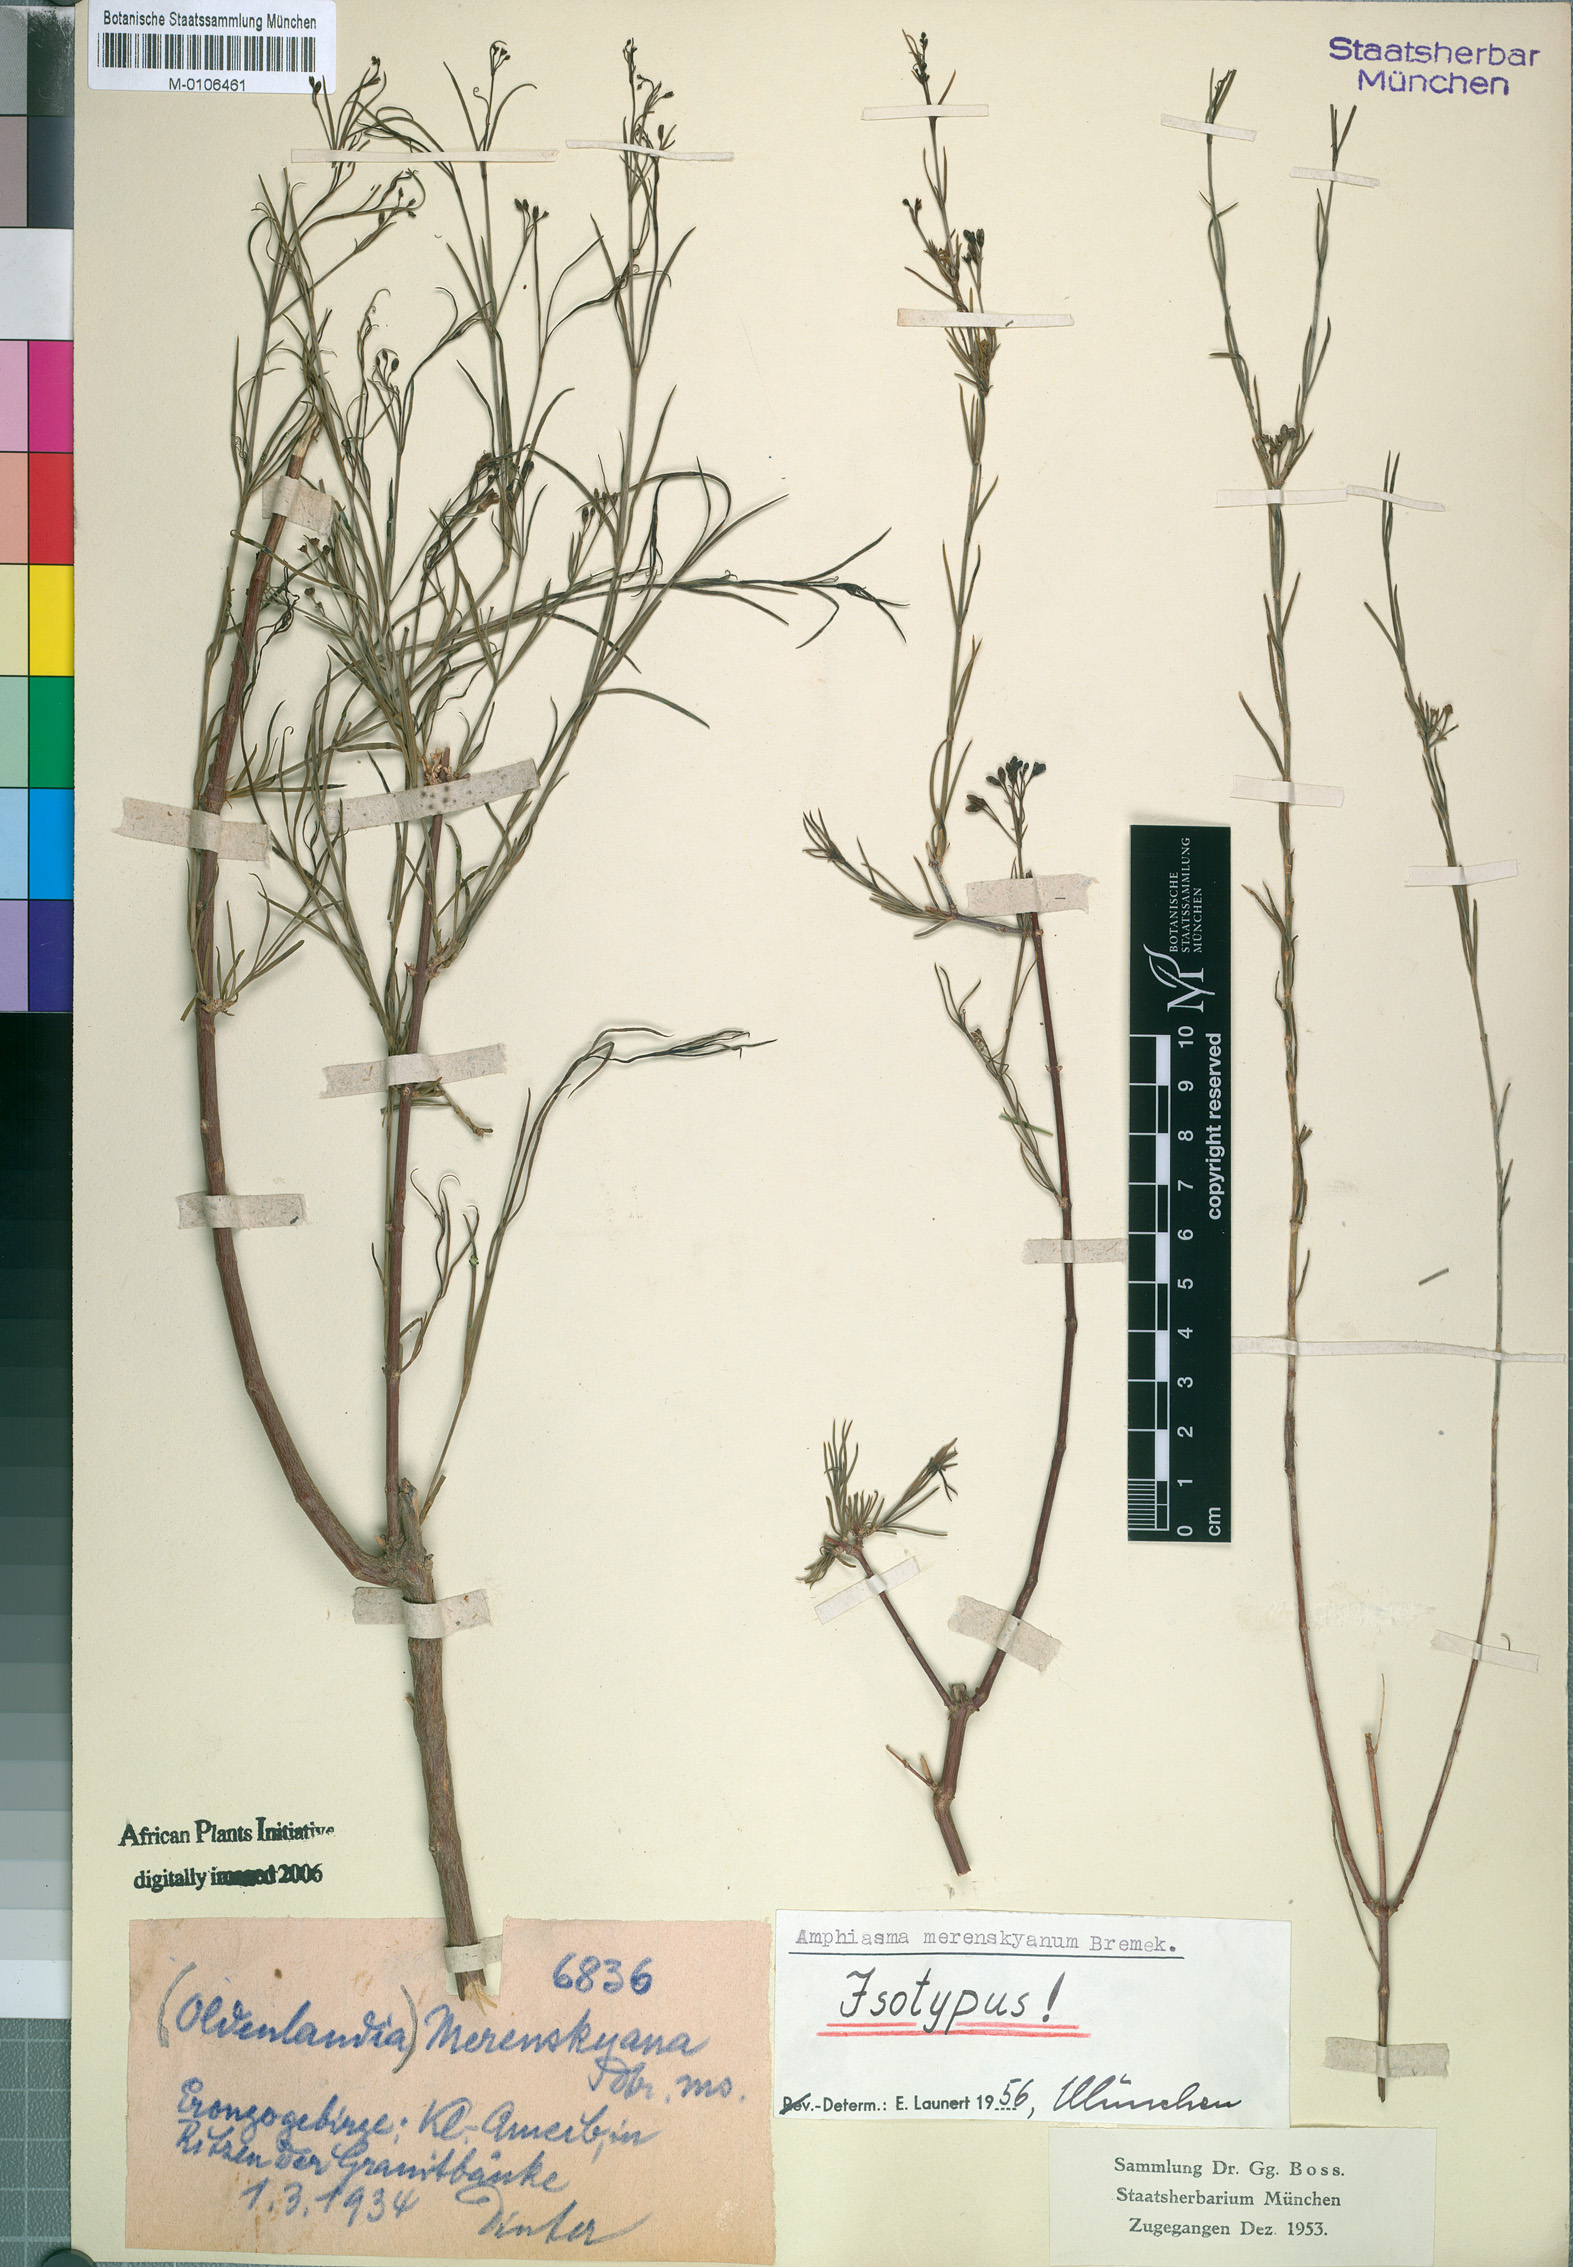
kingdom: Plantae
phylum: Tracheophyta
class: Magnoliopsida
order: Gentianales
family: Rubiaceae
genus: Amphiasma
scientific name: Amphiasma merenskyanum
